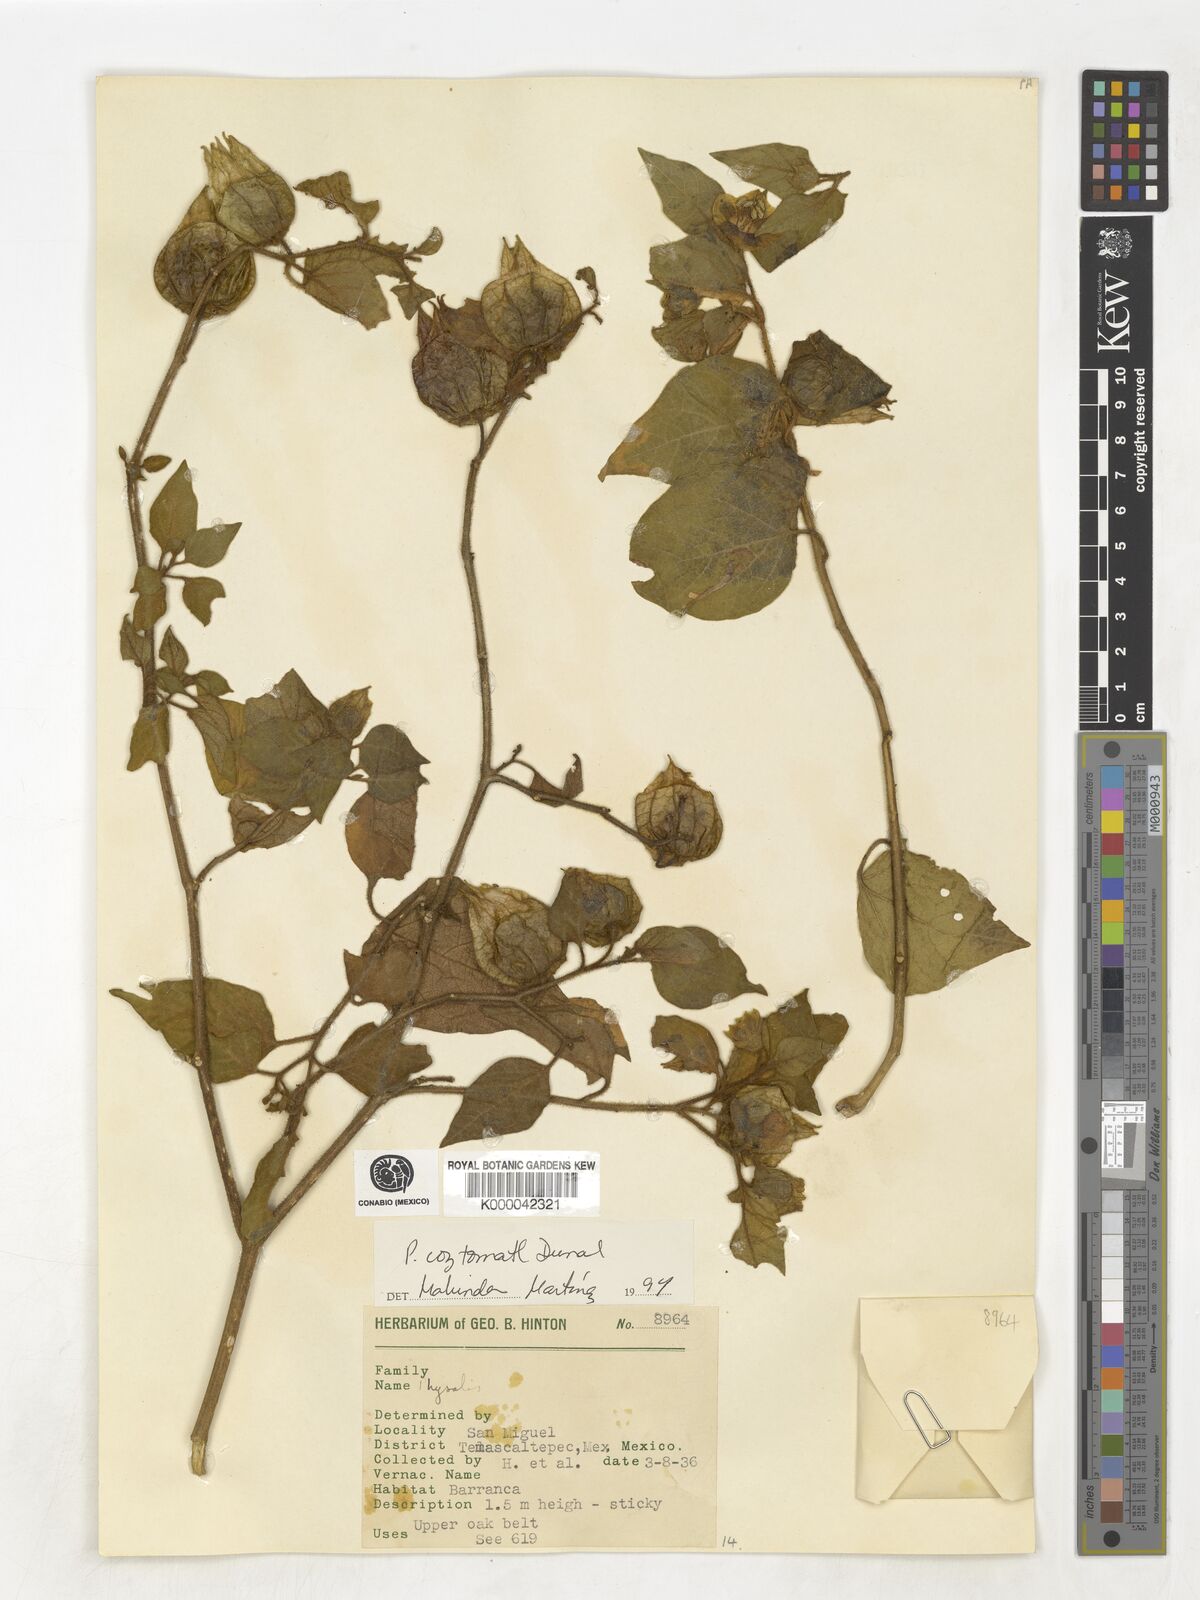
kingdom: Plantae
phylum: Tracheophyta
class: Magnoliopsida
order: Solanales
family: Solanaceae
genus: Physalis
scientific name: Physalis coztomatl
